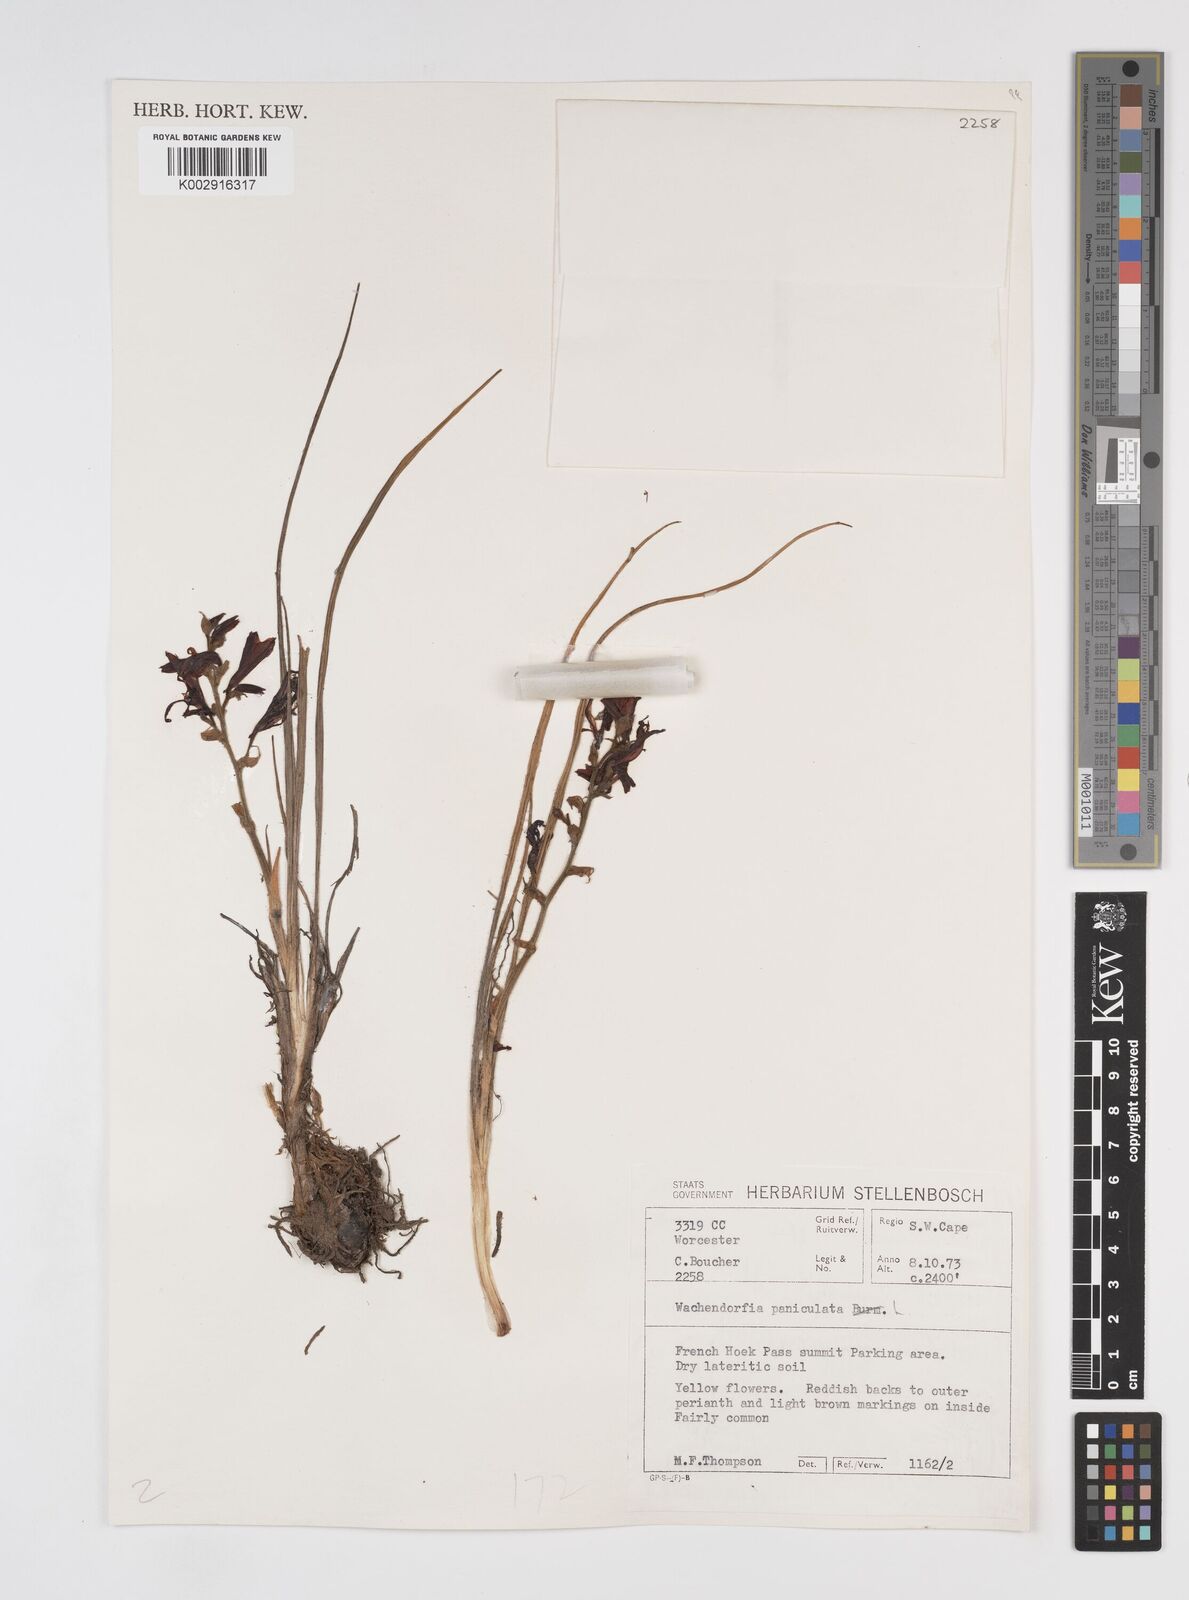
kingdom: Plantae
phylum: Tracheophyta
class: Liliopsida
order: Commelinales
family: Haemodoraceae
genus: Wachendorfia
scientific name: Wachendorfia paniculata
